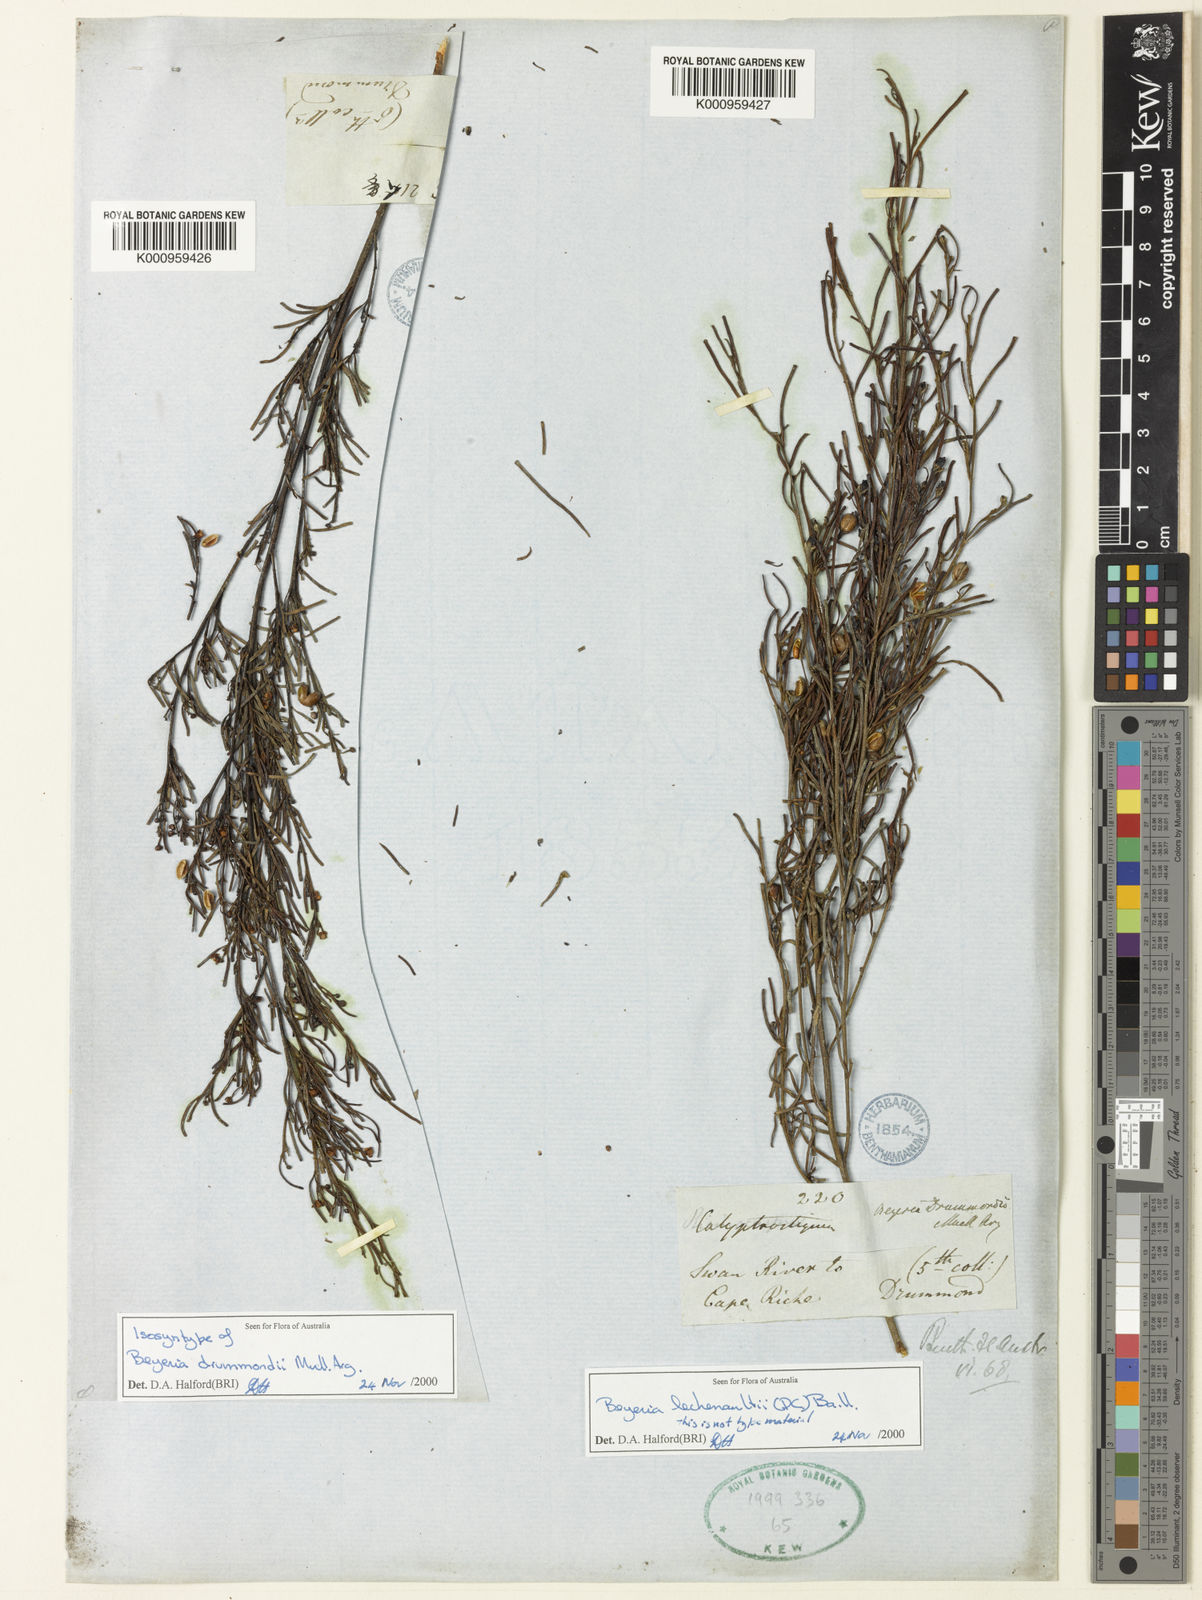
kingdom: Plantae
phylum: Tracheophyta
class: Magnoliopsida
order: Malpighiales
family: Euphorbiaceae
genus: Shonia
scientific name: Shonia tristigma
